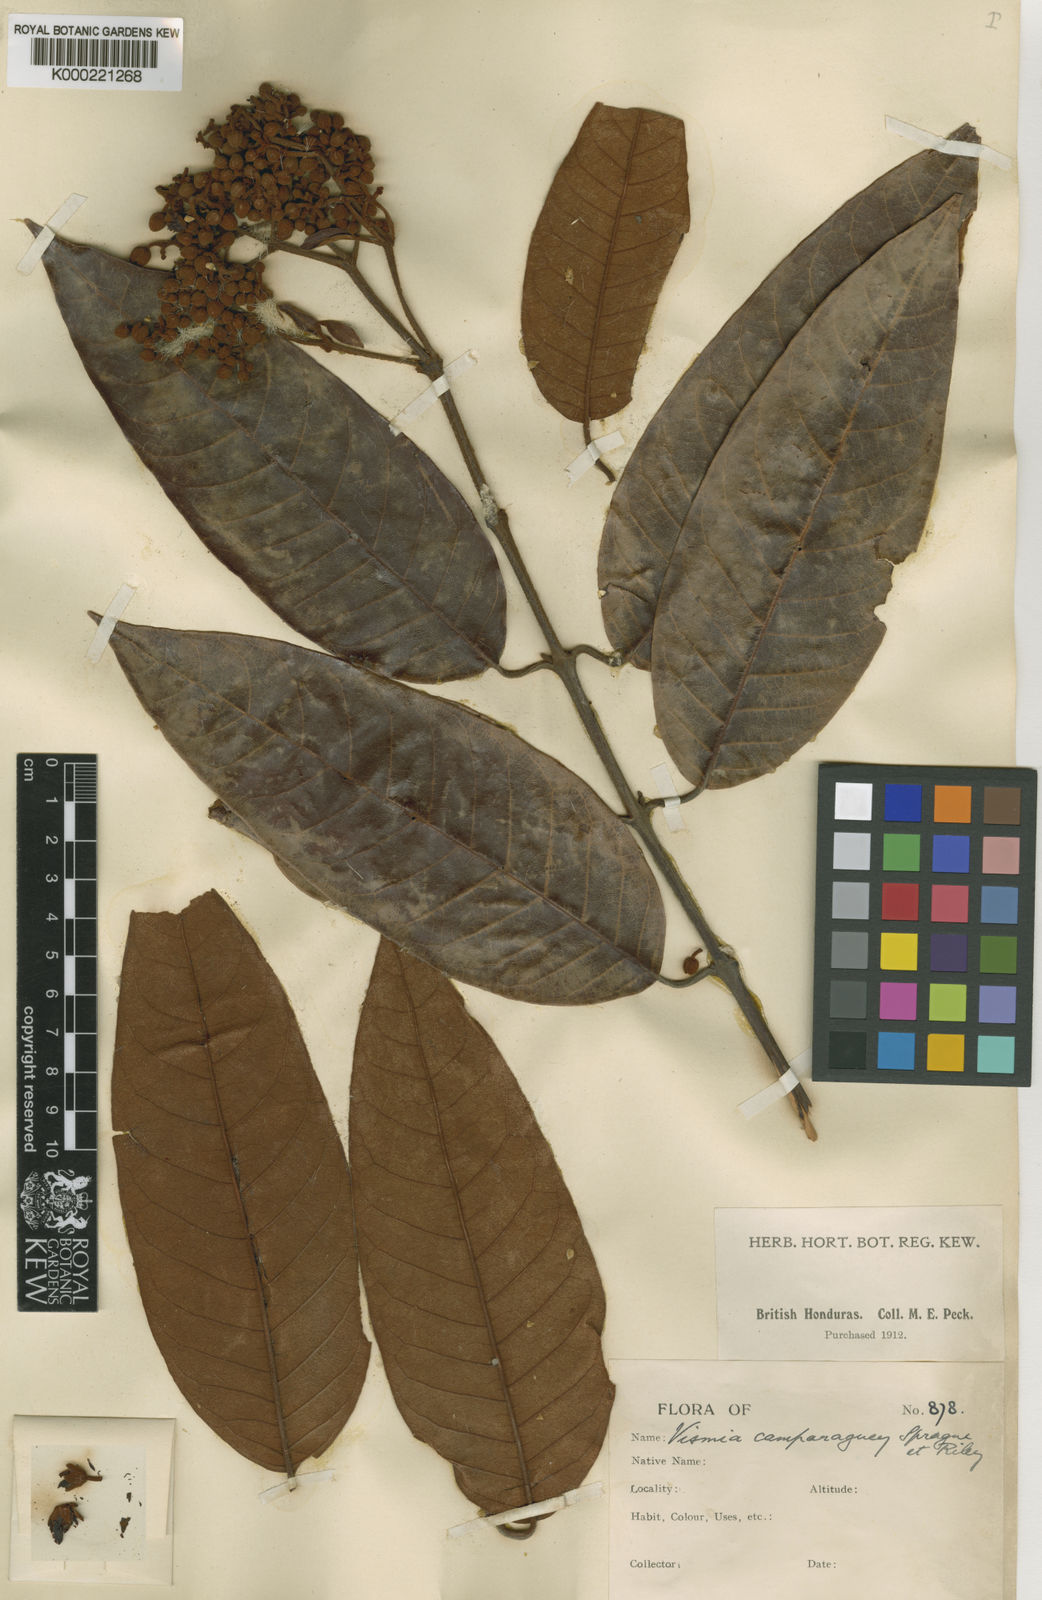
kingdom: Plantae
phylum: Tracheophyta
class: Magnoliopsida
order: Malpighiales
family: Hypericaceae
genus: Vismia
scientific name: Vismia camparaguey
